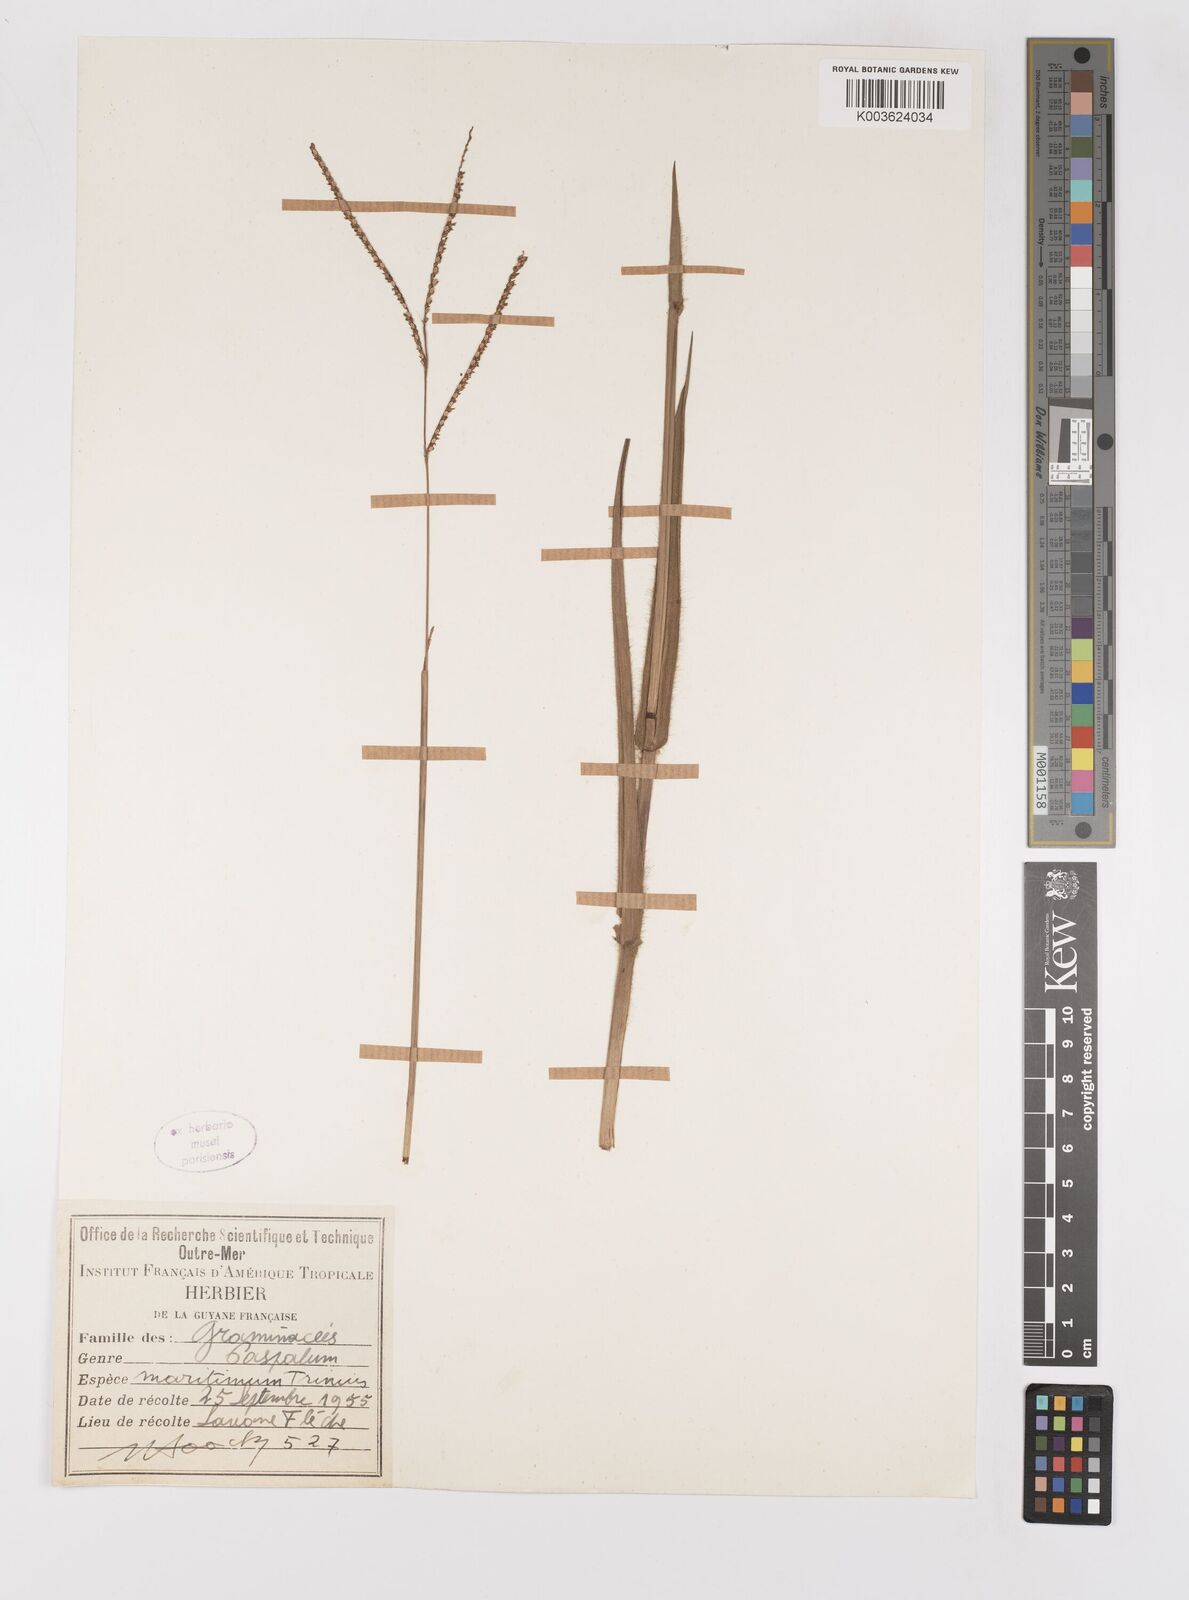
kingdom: Plantae
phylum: Tracheophyta
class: Liliopsida
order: Poales
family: Poaceae
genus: Paspalum
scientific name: Paspalum maritimum
